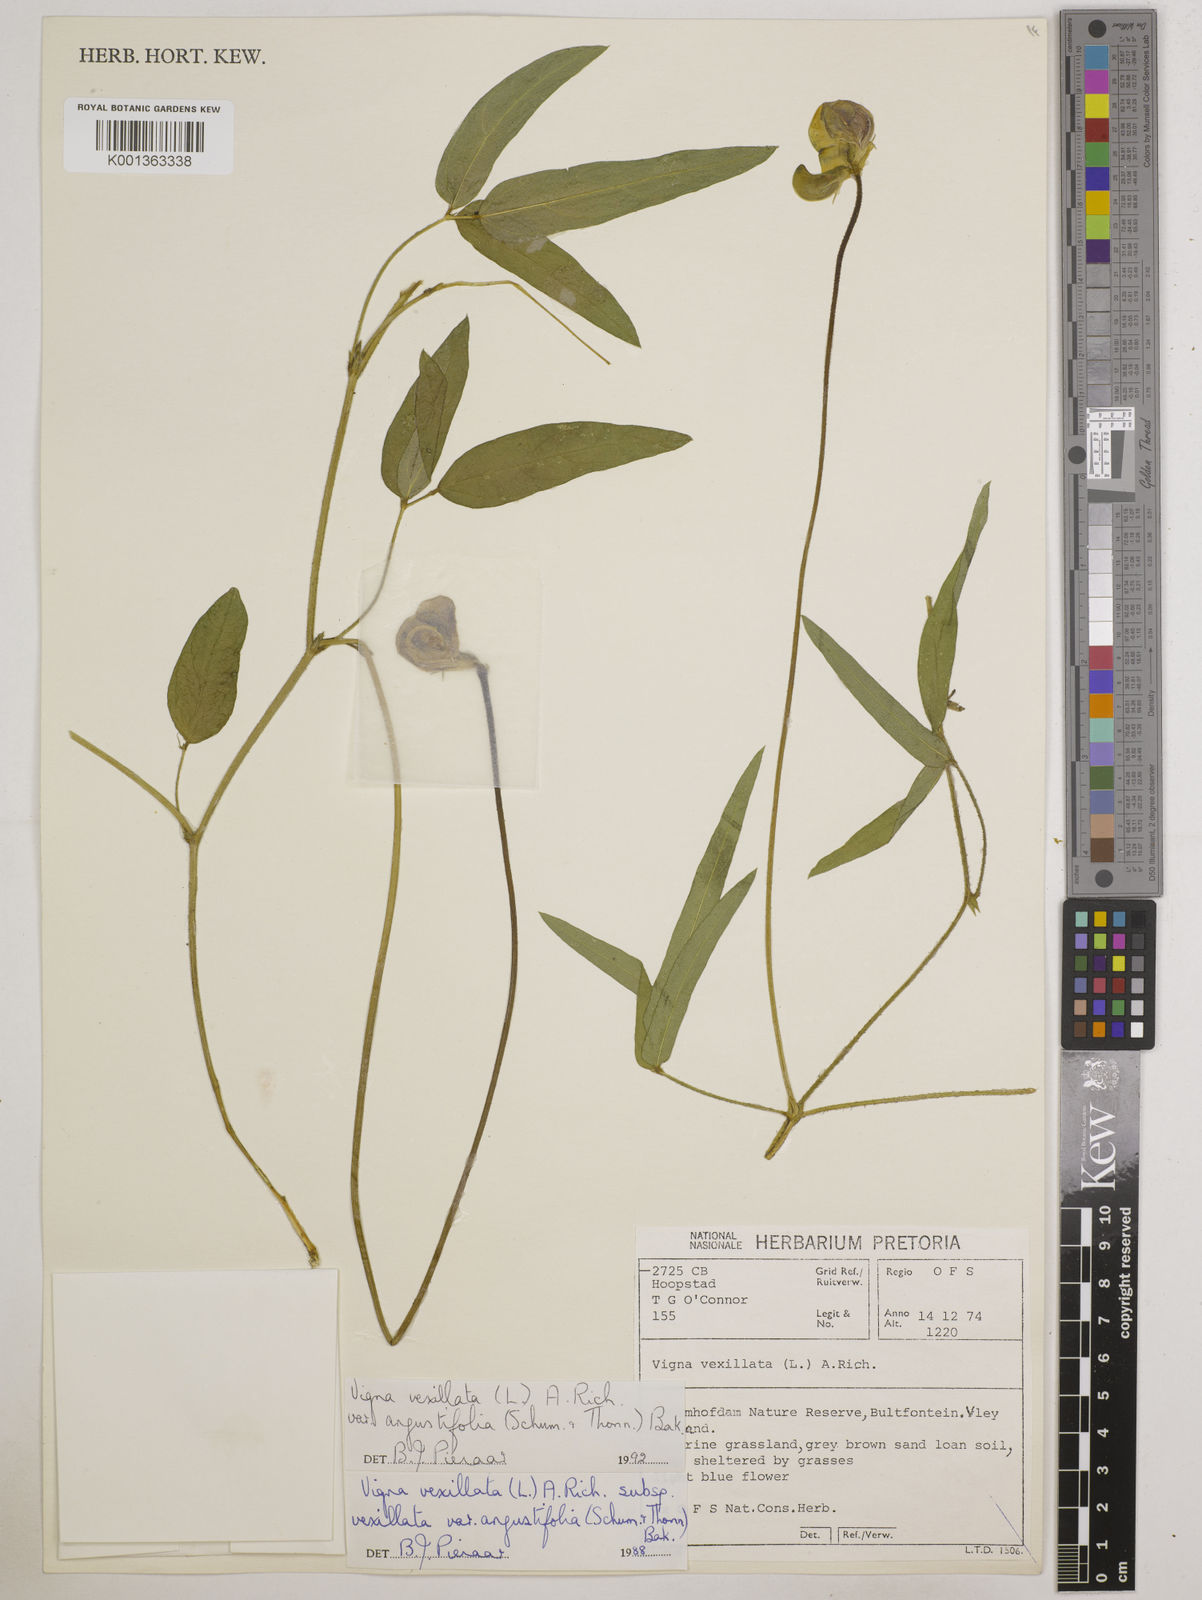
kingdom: Plantae
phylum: Tracheophyta
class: Magnoliopsida
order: Fabales
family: Fabaceae
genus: Vigna
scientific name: Vigna
